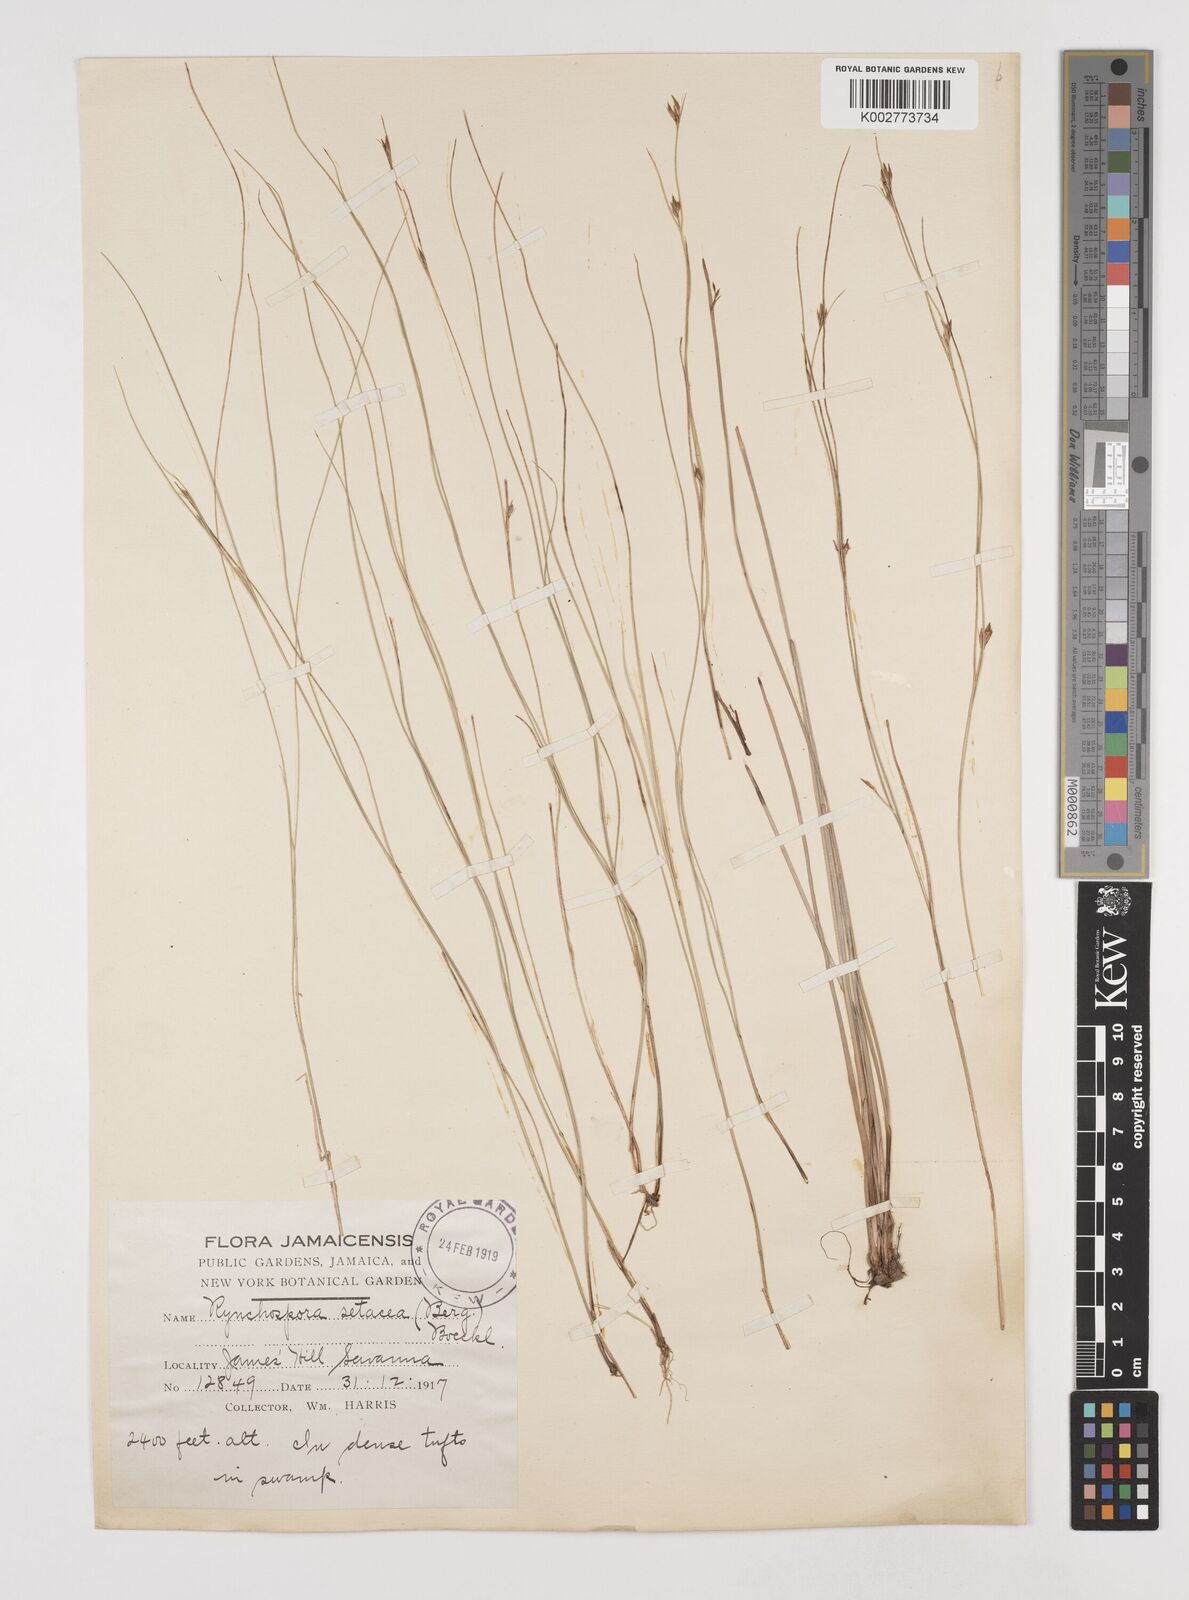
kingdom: Plantae
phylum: Tracheophyta
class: Liliopsida
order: Poales
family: Cyperaceae
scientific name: Cyperaceae
